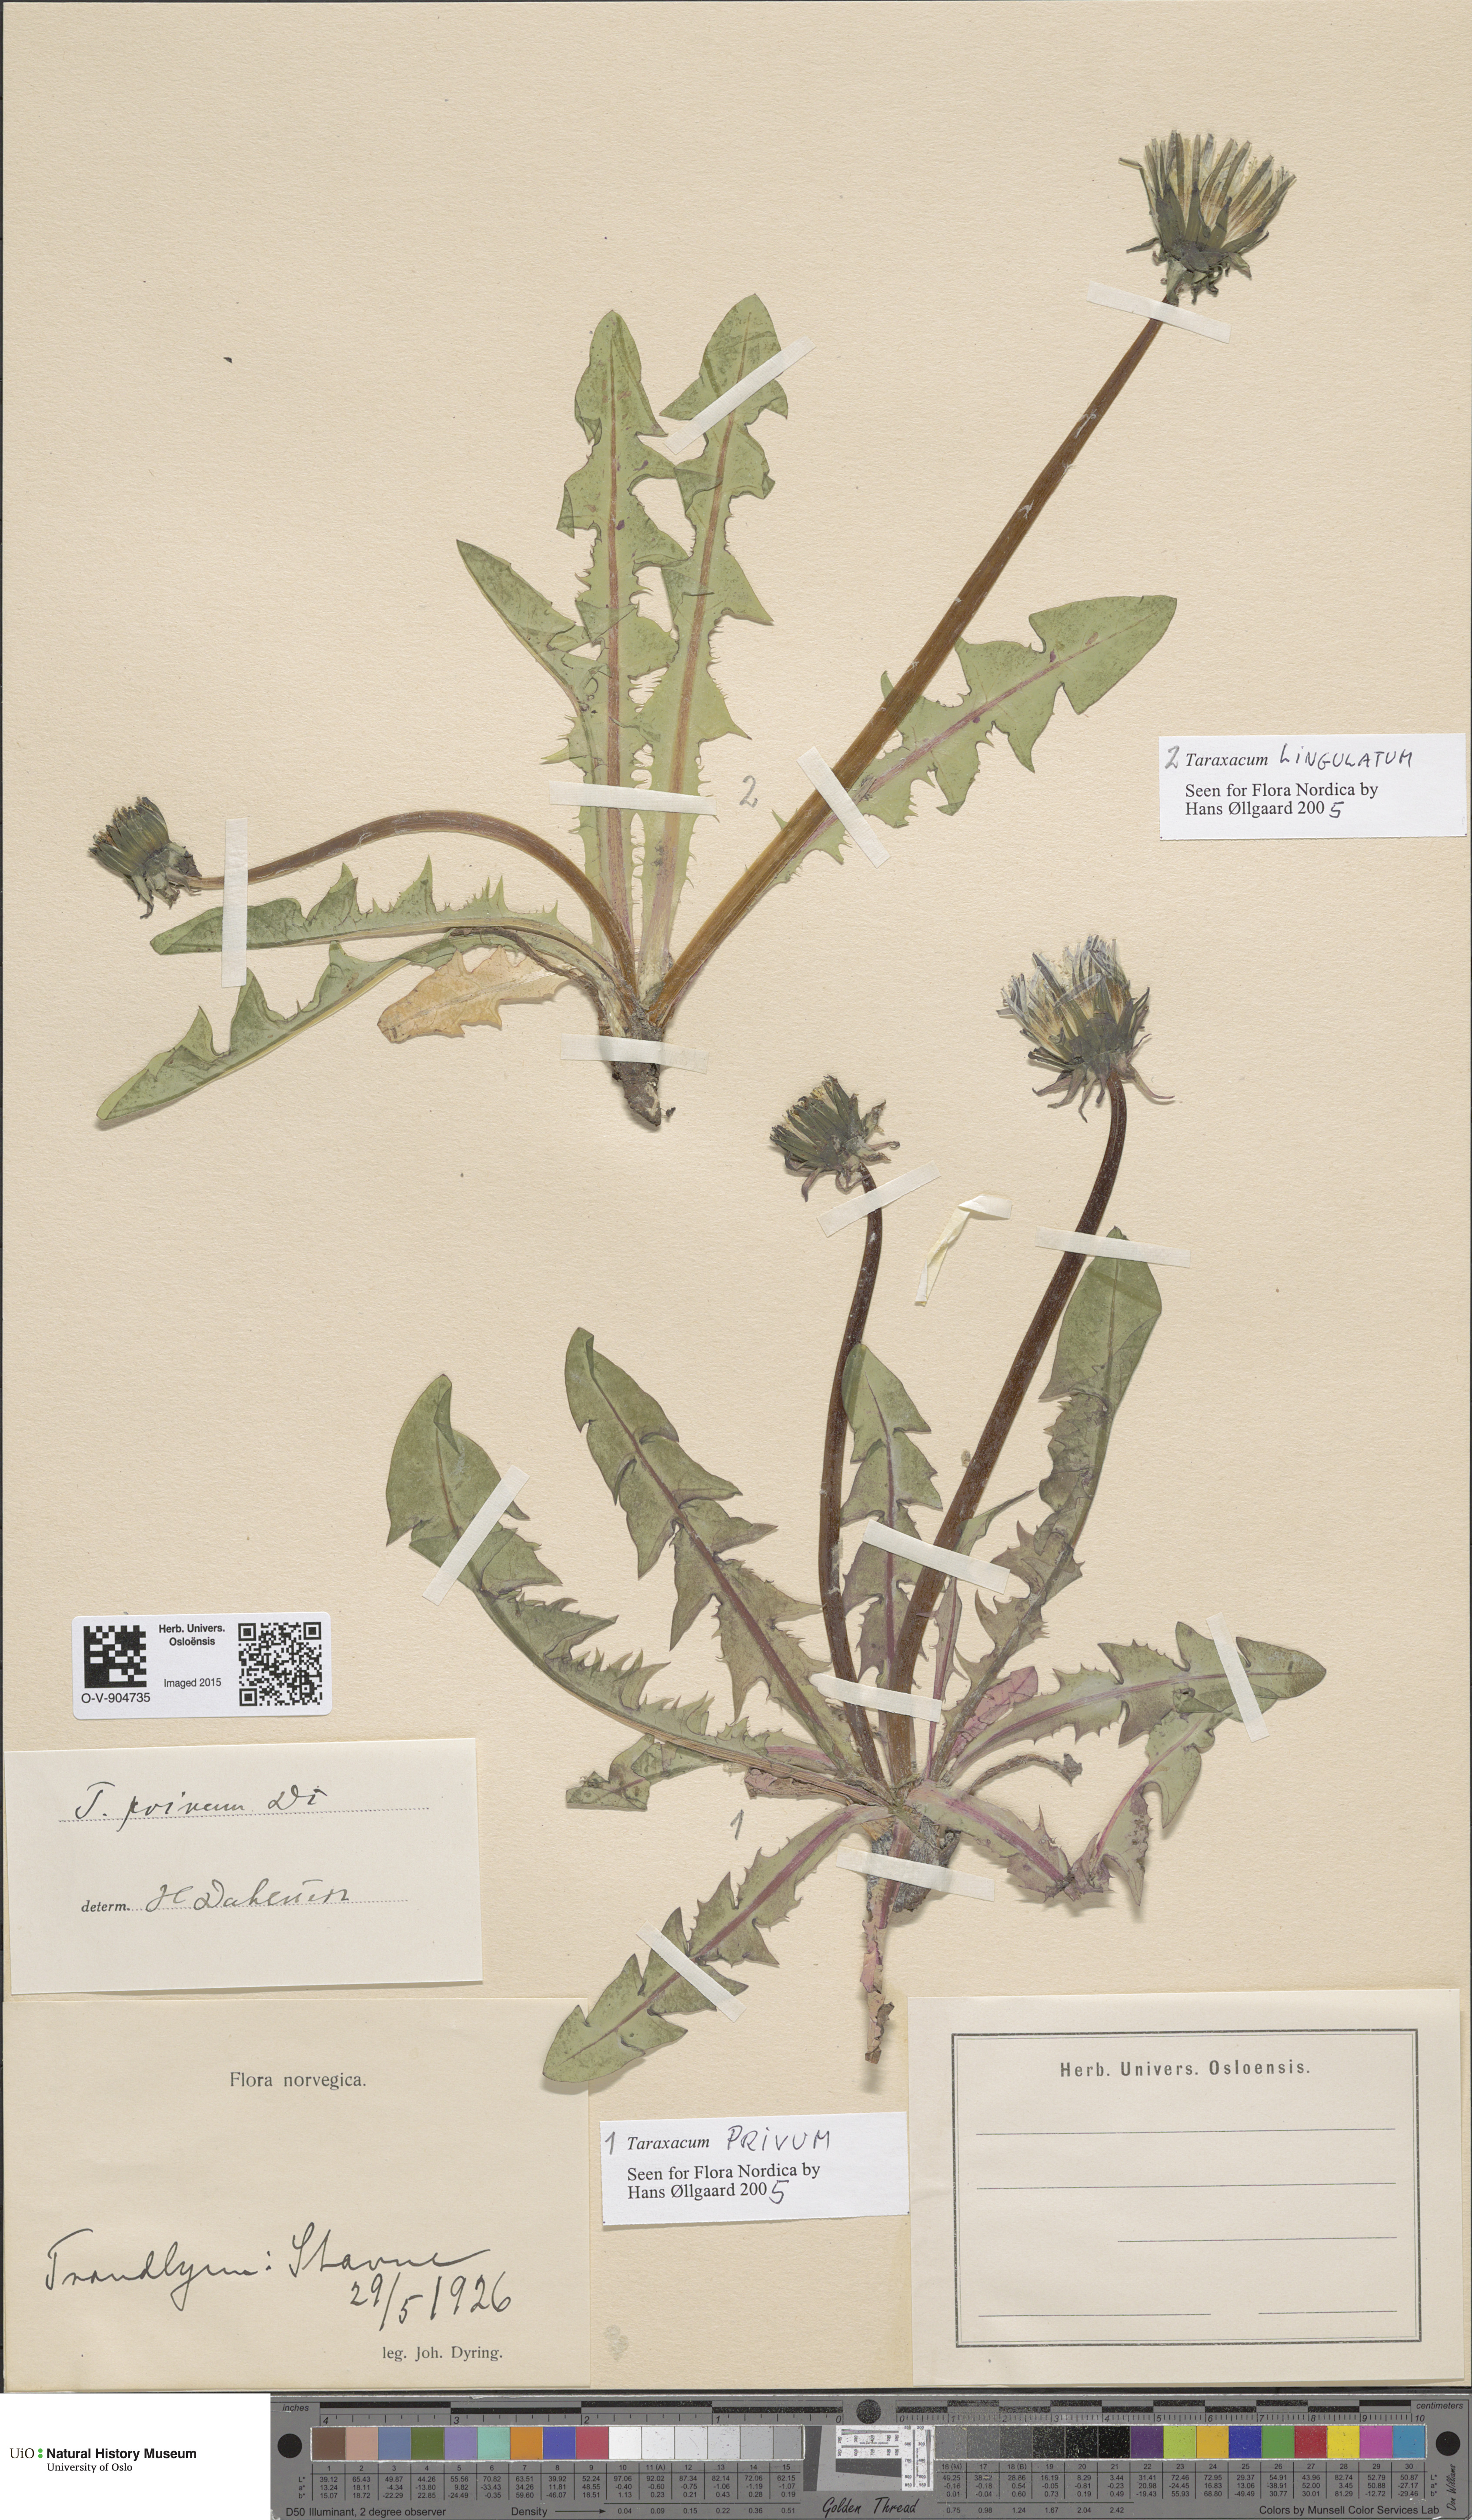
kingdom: Plantae
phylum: Tracheophyta
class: Magnoliopsida
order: Asterales
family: Asteraceae
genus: Taraxacum
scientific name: Taraxacum lingulatum
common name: Long-bracted dandelion
